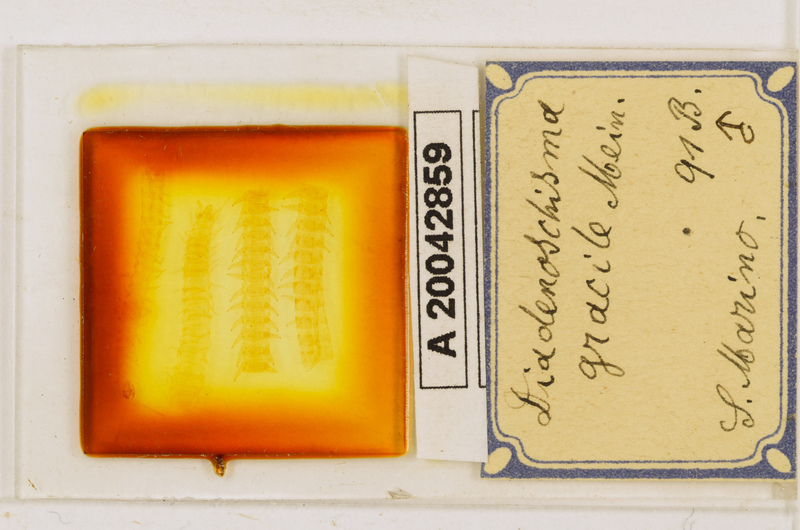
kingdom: Animalia
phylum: Arthropoda
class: Chilopoda
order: Geophilomorpha
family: Himantariidae
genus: Stigmatogaster
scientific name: Stigmatogaster
